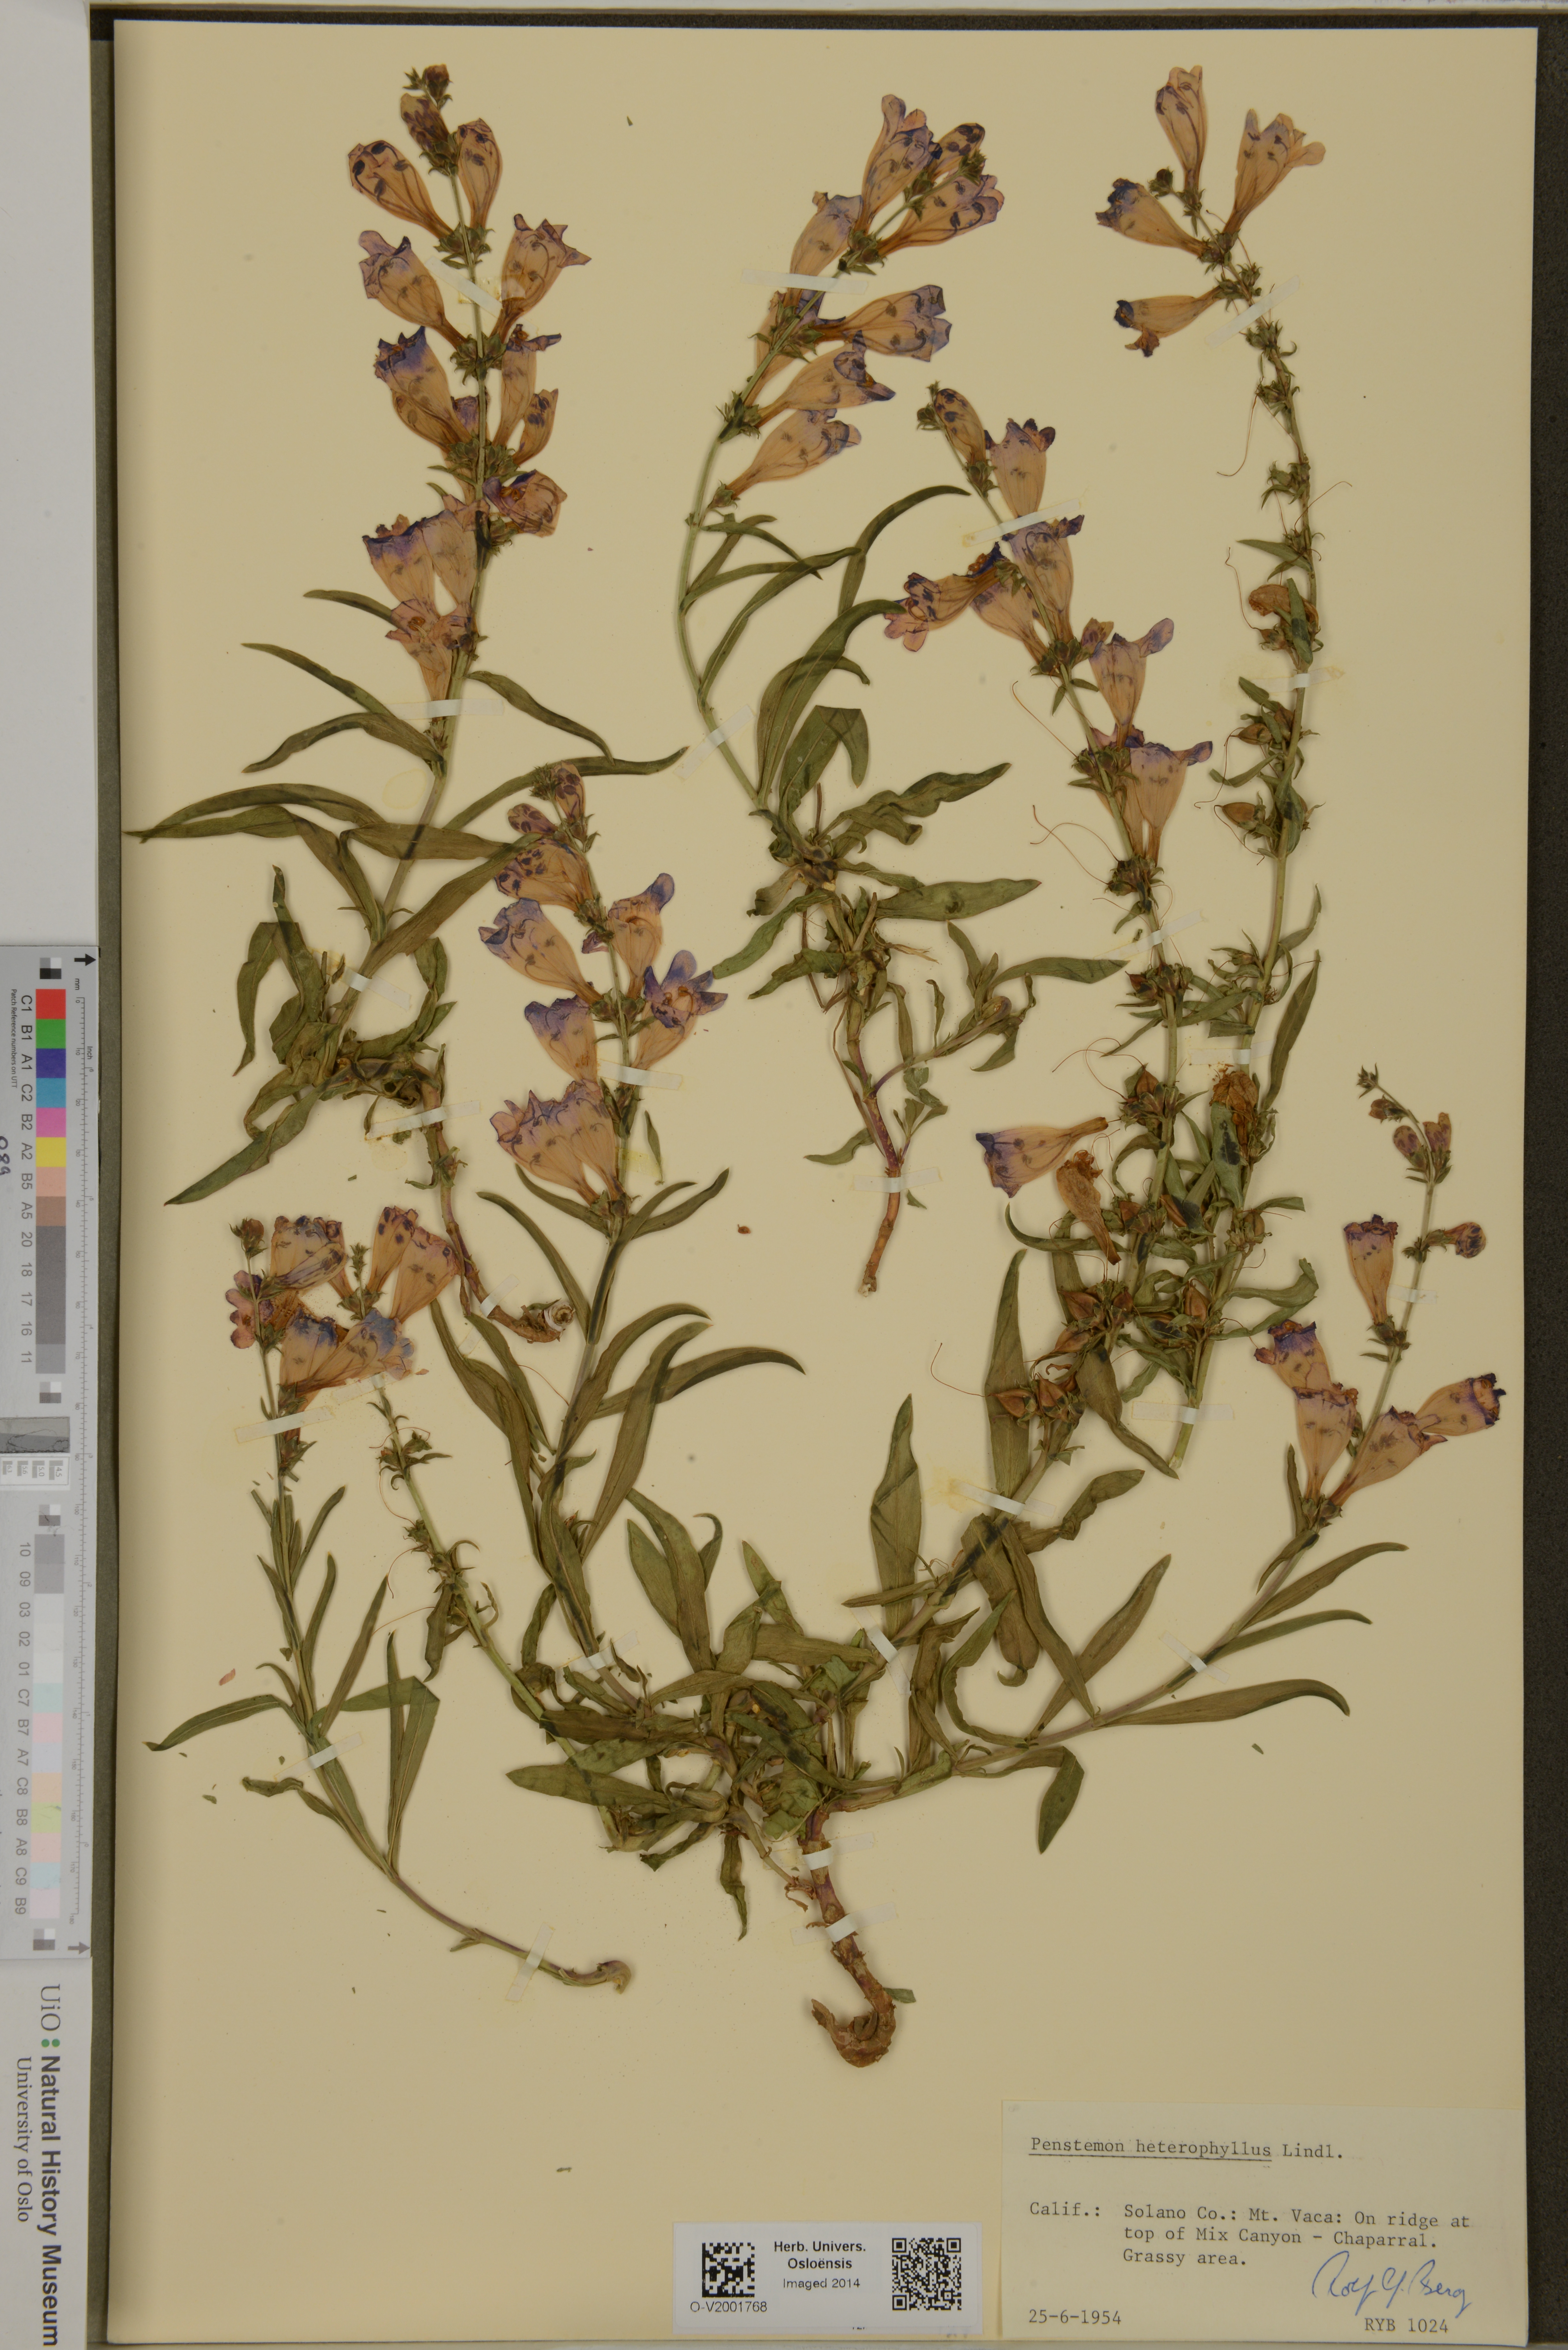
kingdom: Plantae
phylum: Tracheophyta
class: Magnoliopsida
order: Lamiales
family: Plantaginaceae
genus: Penstemon
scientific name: Penstemon heterophyllus
